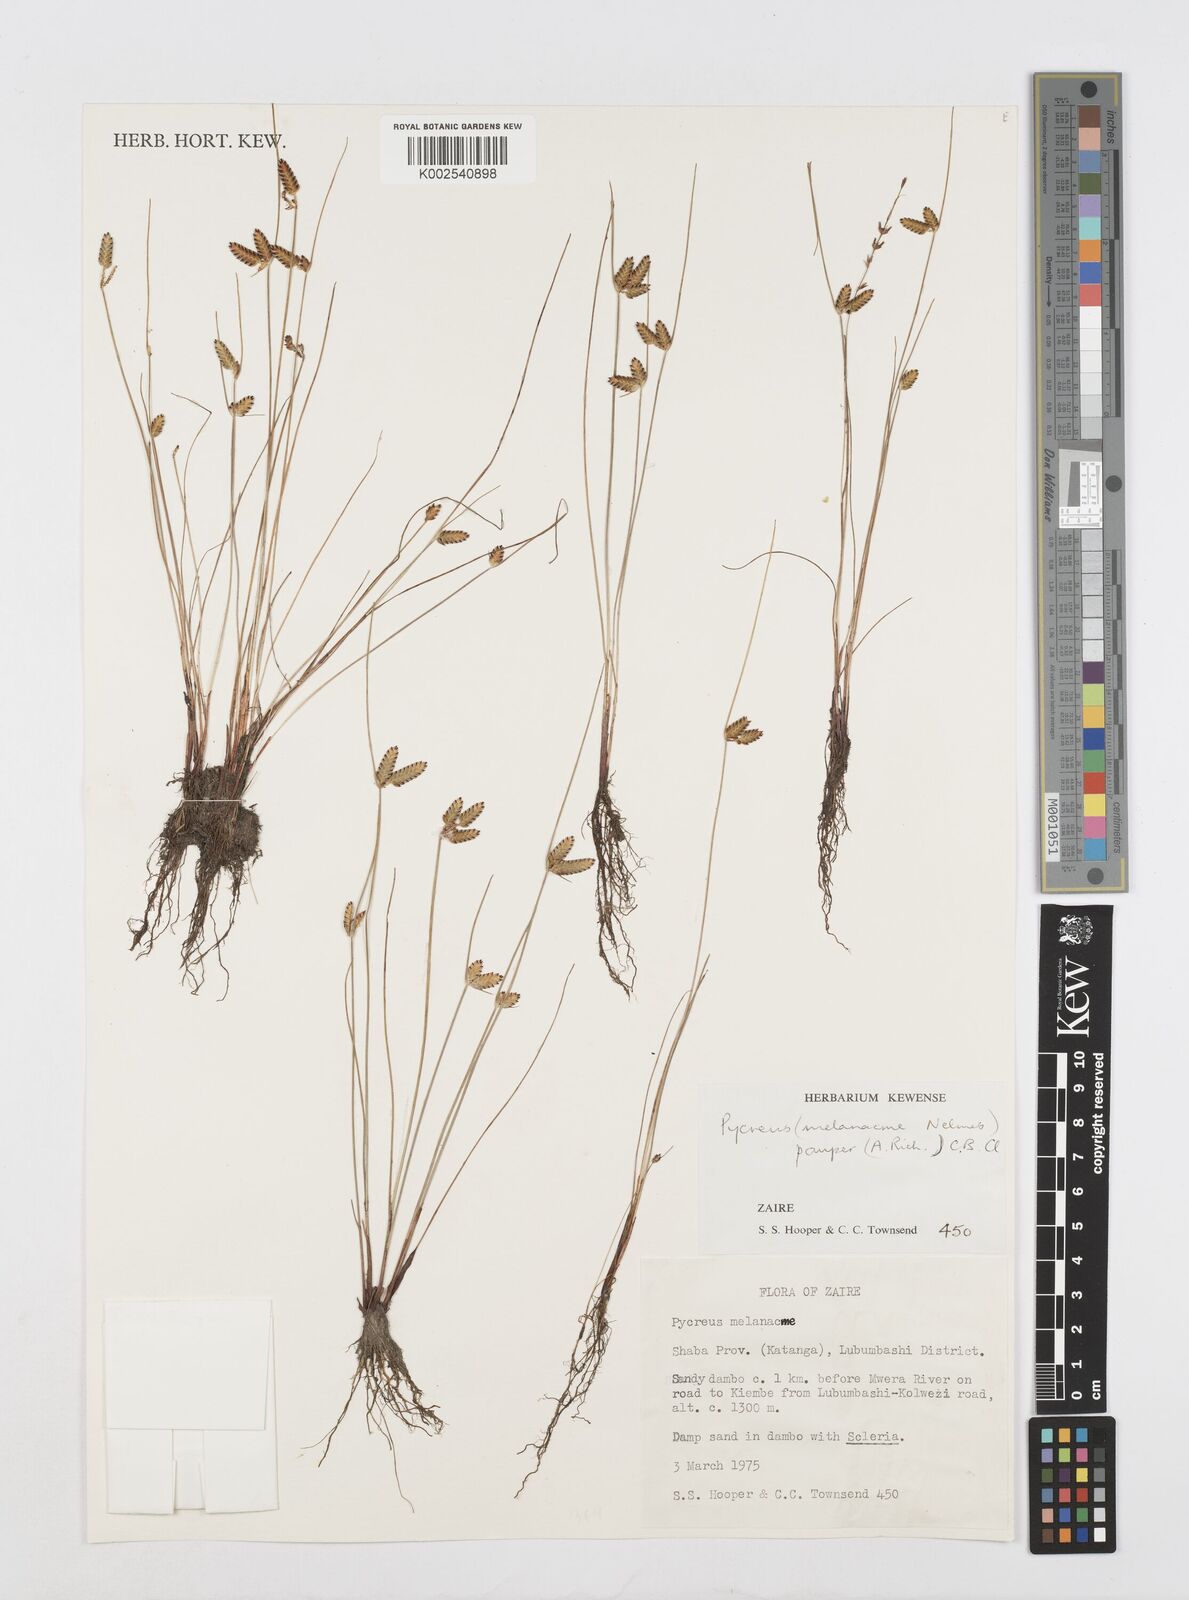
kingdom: Plantae
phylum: Tracheophyta
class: Liliopsida
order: Poales
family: Cyperaceae
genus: Cyperus
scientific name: Cyperus melanacme
